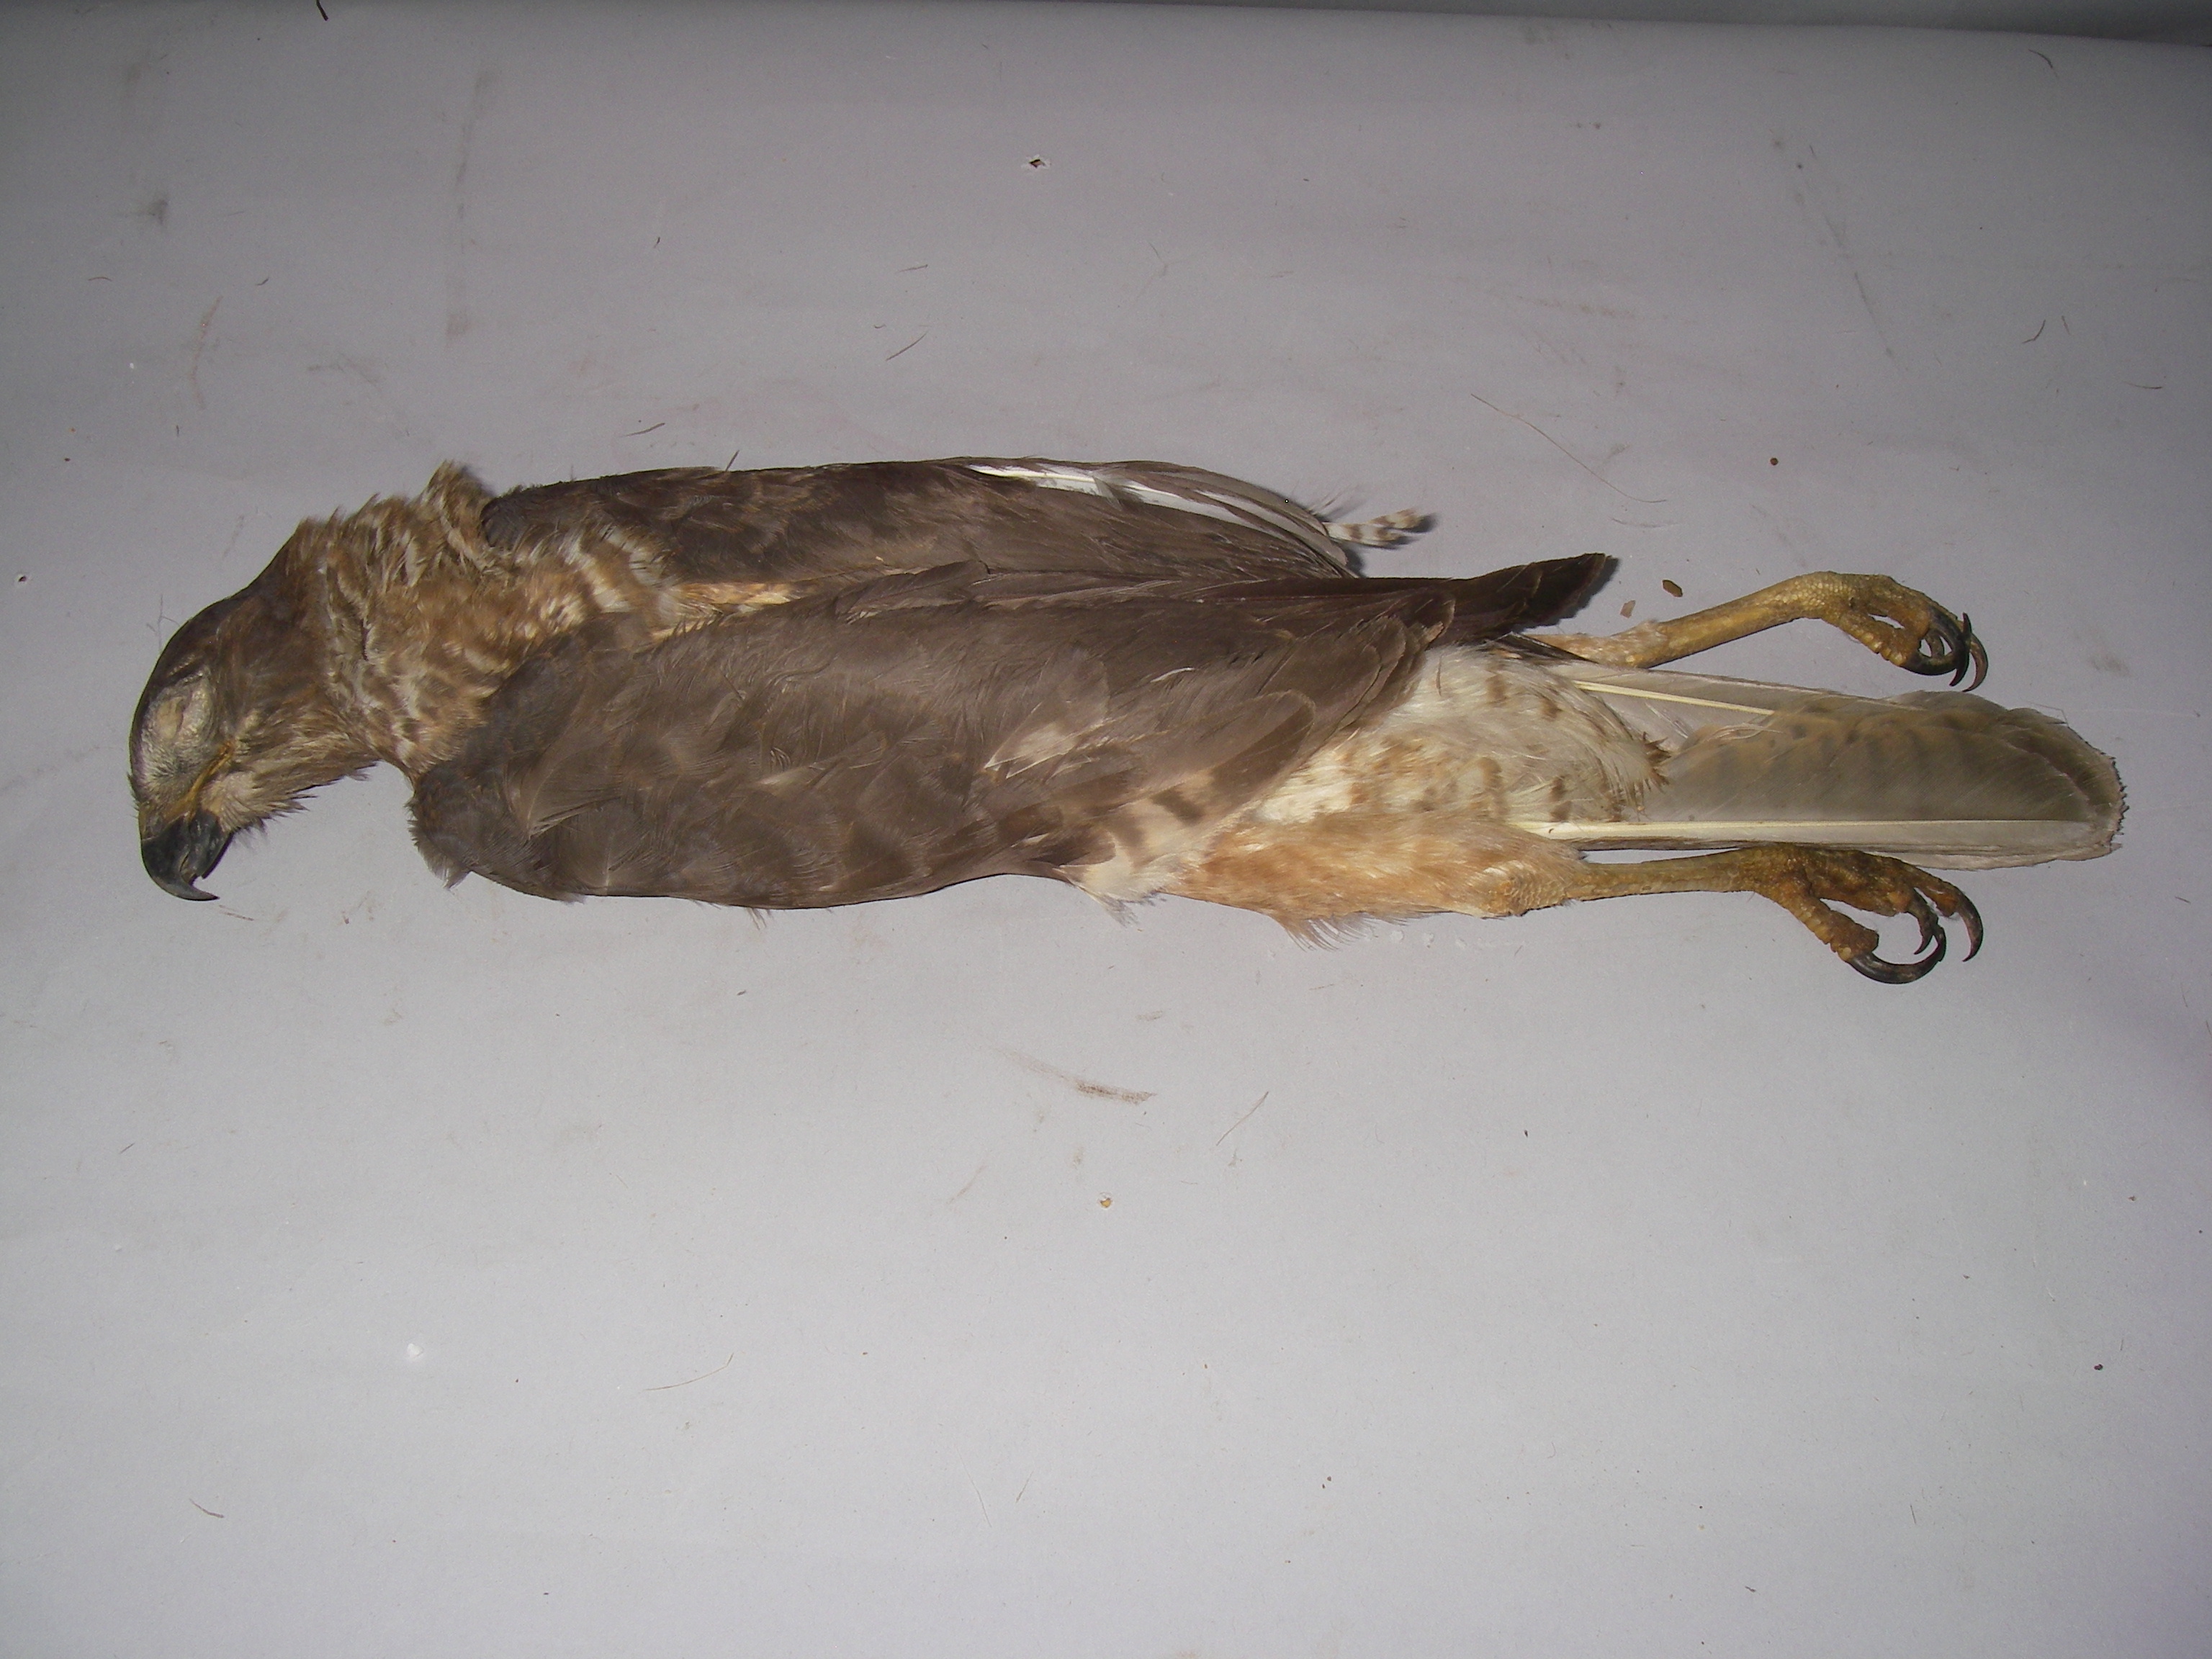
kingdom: Animalia
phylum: Chordata
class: Aves
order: Accipitriformes
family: Accipitridae
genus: Accipiter
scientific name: Accipiter rufiventris
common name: Rufous-breasted sparrowhawk
